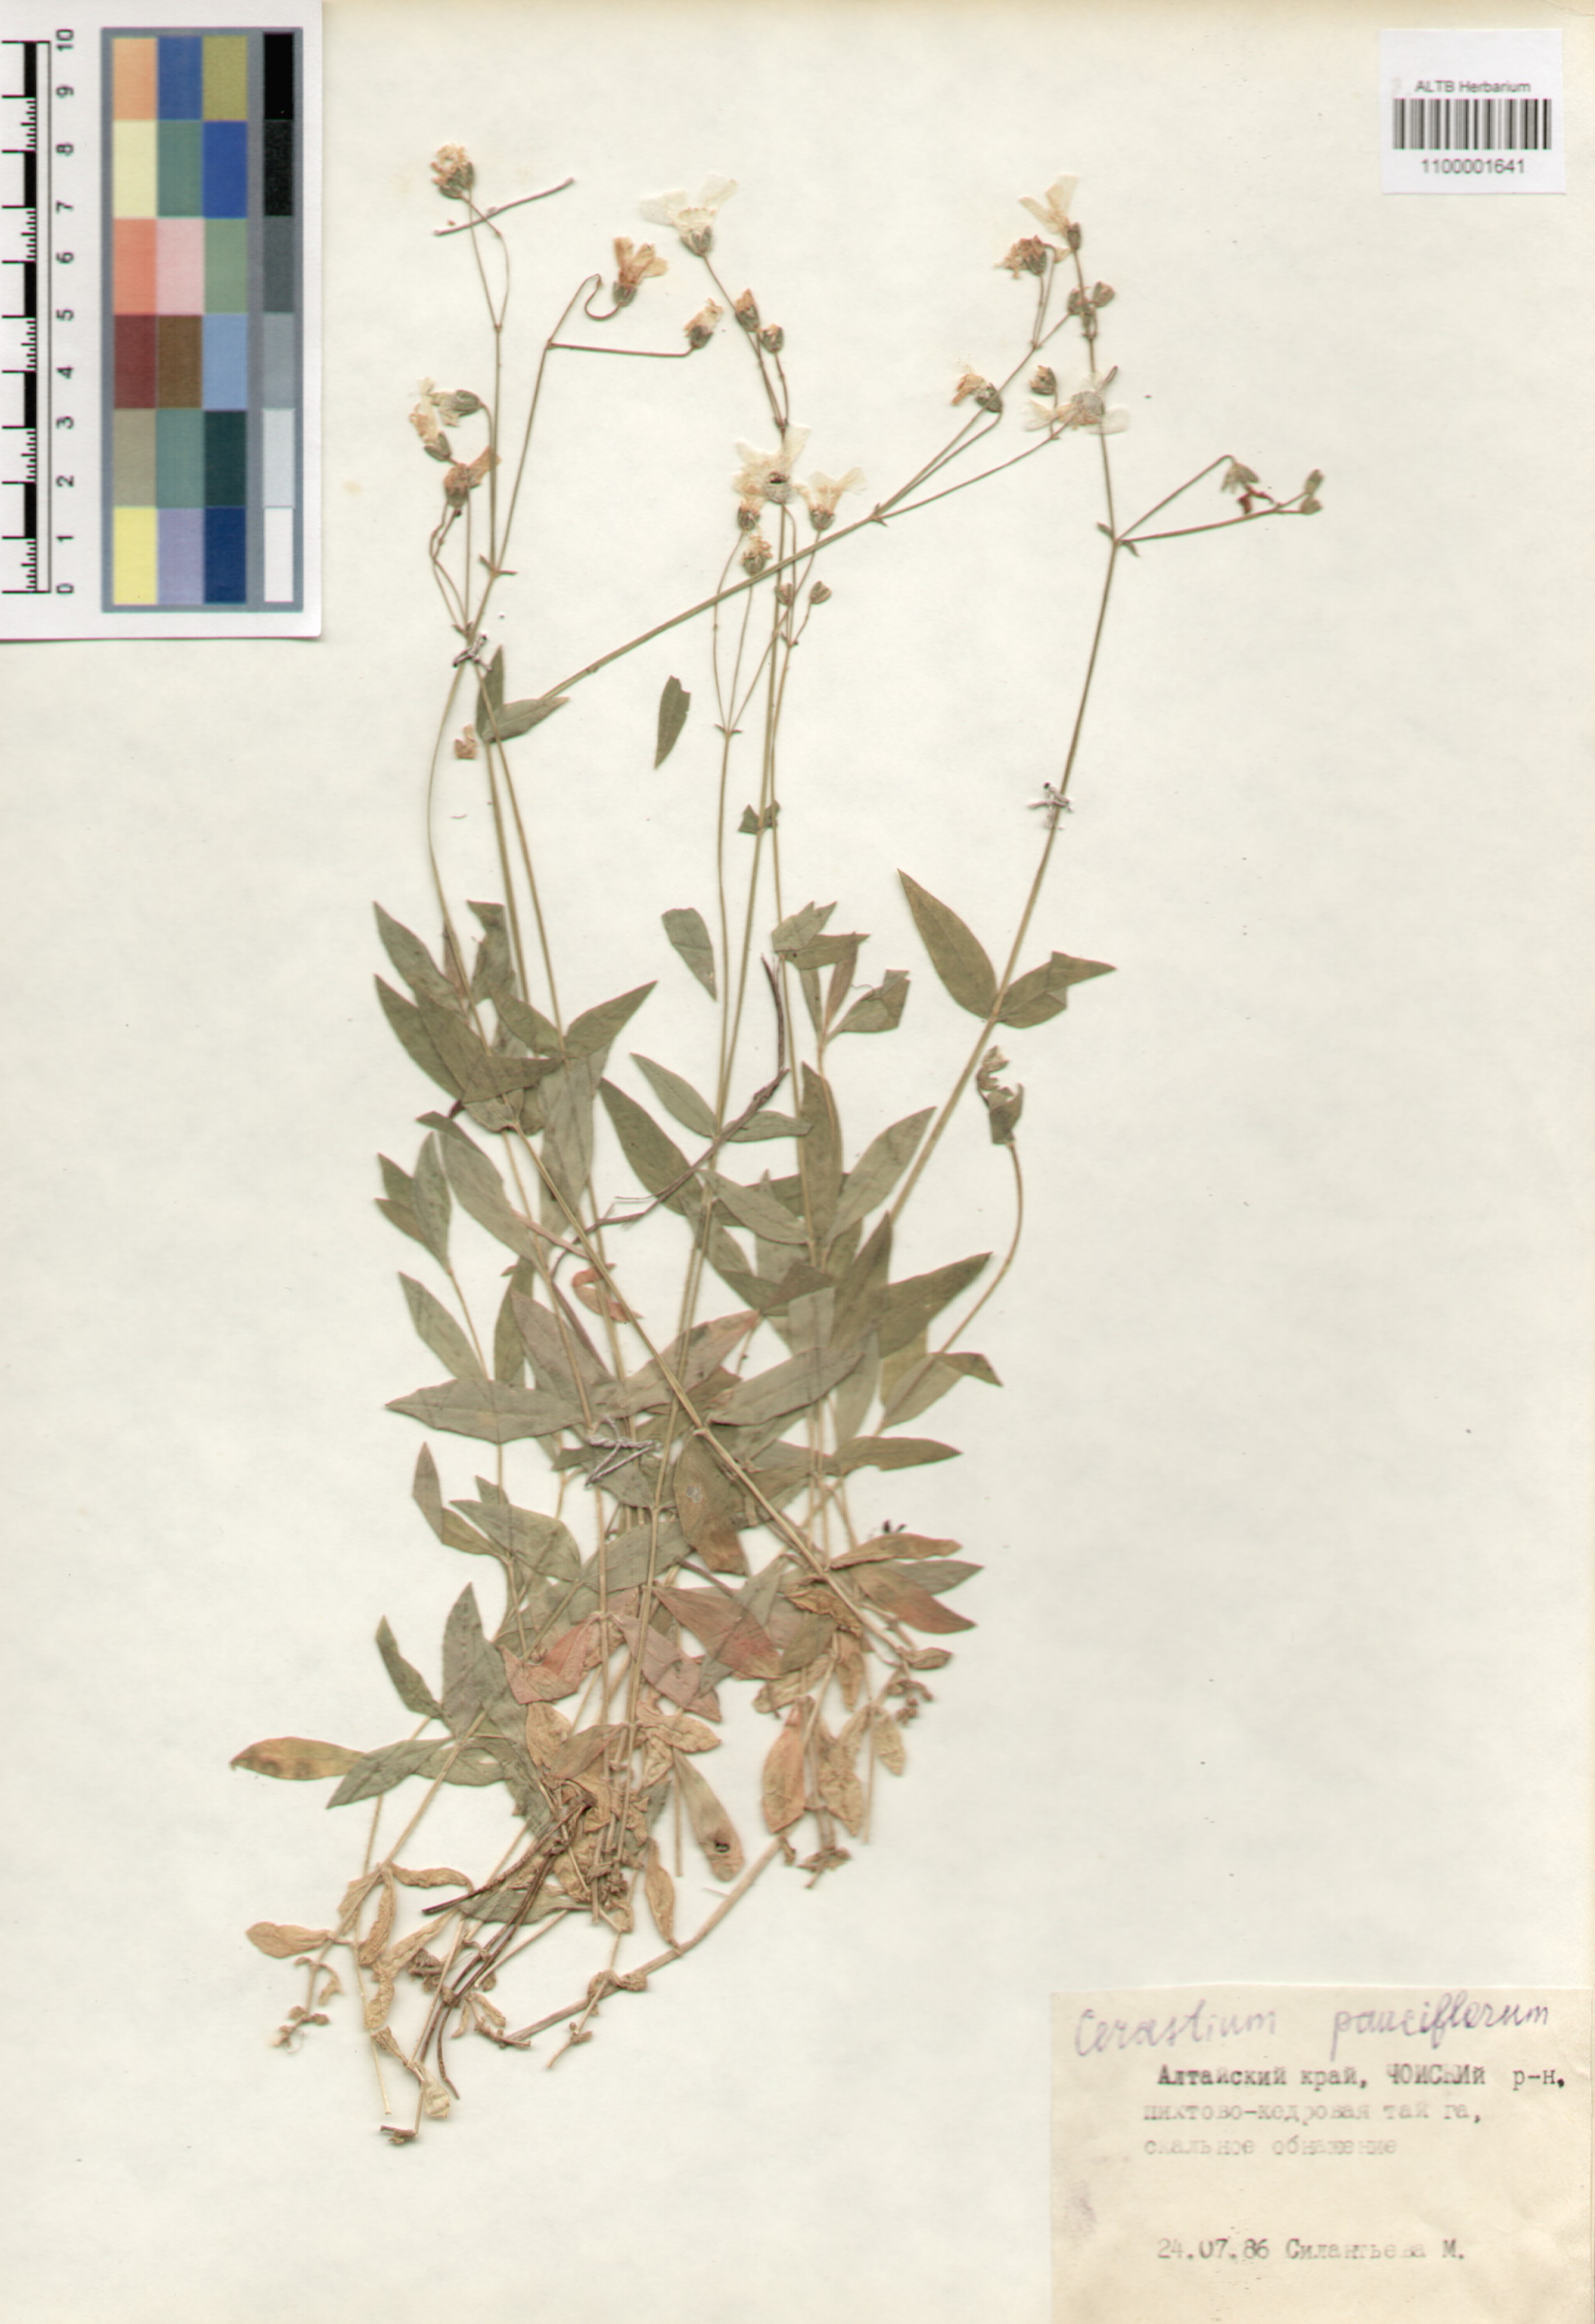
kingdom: Plantae
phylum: Tracheophyta
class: Magnoliopsida
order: Caryophyllales
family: Caryophyllaceae
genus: Cerastium
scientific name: Cerastium pauciflorum
